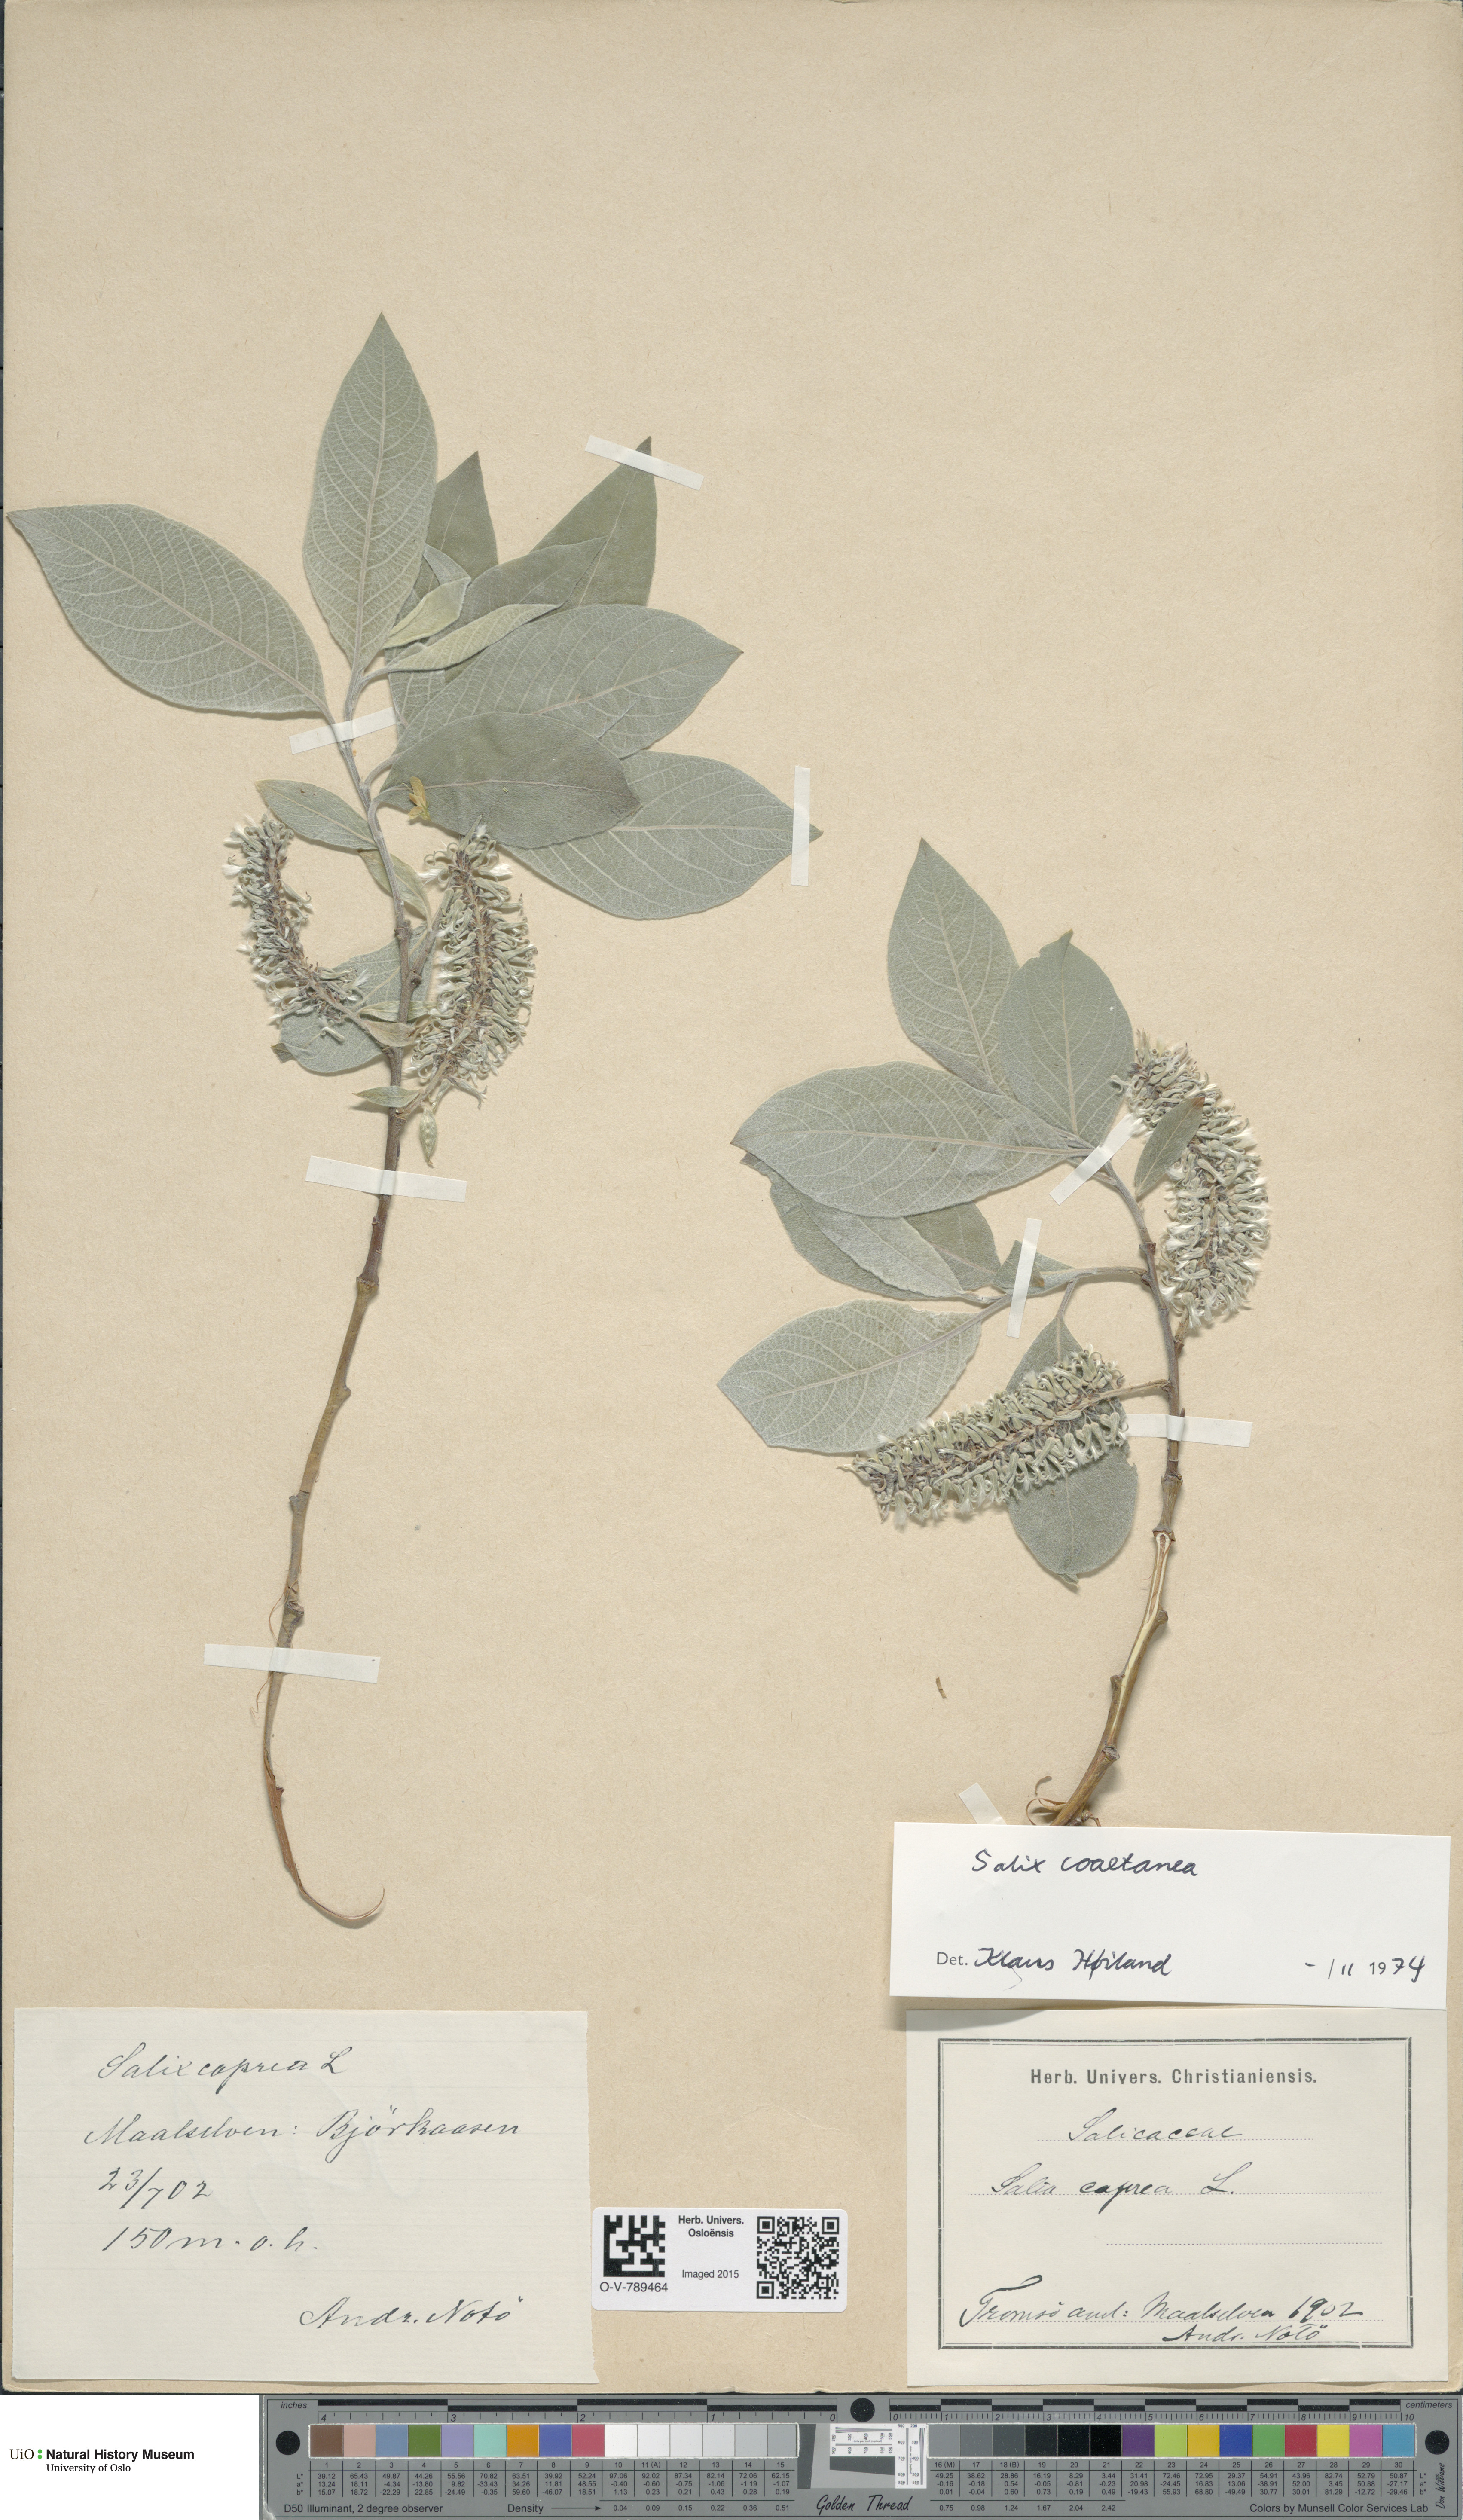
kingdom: Plantae
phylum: Tracheophyta
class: Magnoliopsida
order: Malpighiales
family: Salicaceae
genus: Salix
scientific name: Salix caprea
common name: Goat willow
